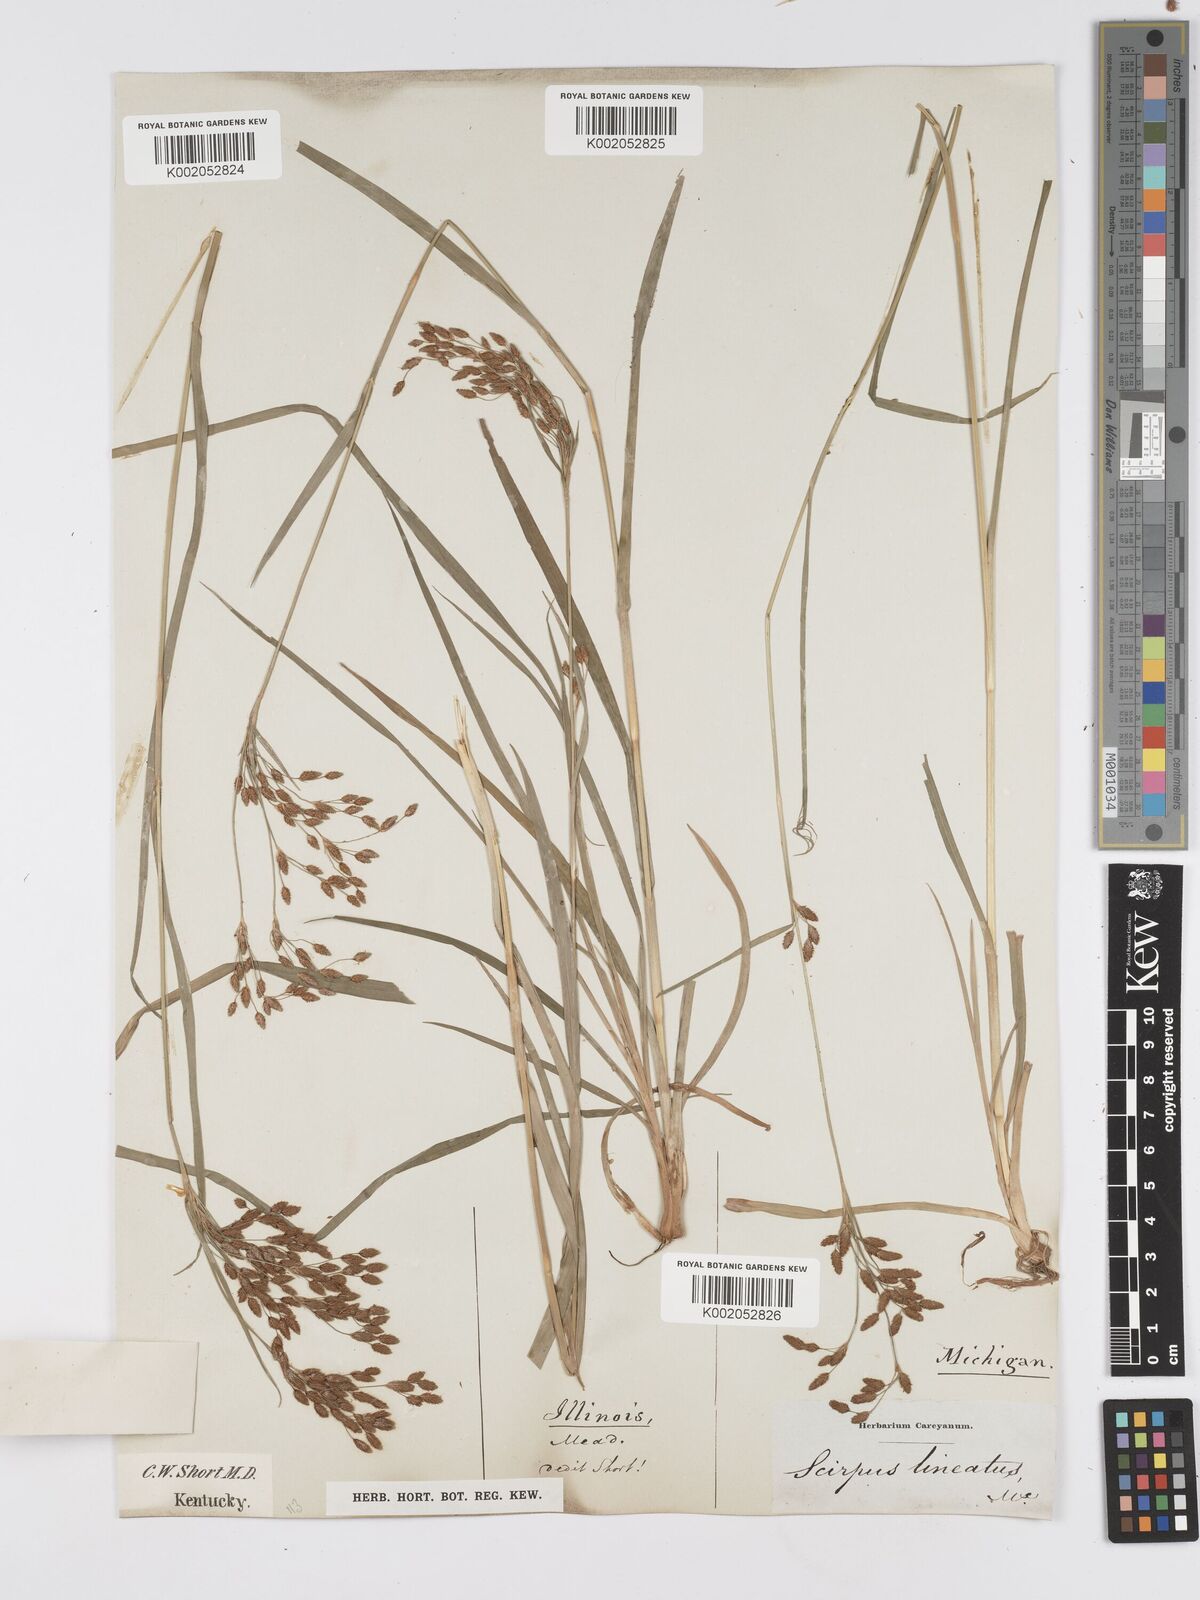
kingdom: Plantae
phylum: Tracheophyta
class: Liliopsida
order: Poales
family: Cyperaceae
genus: Scirpus
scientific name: Scirpus lineatus
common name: Drooping bulrush
